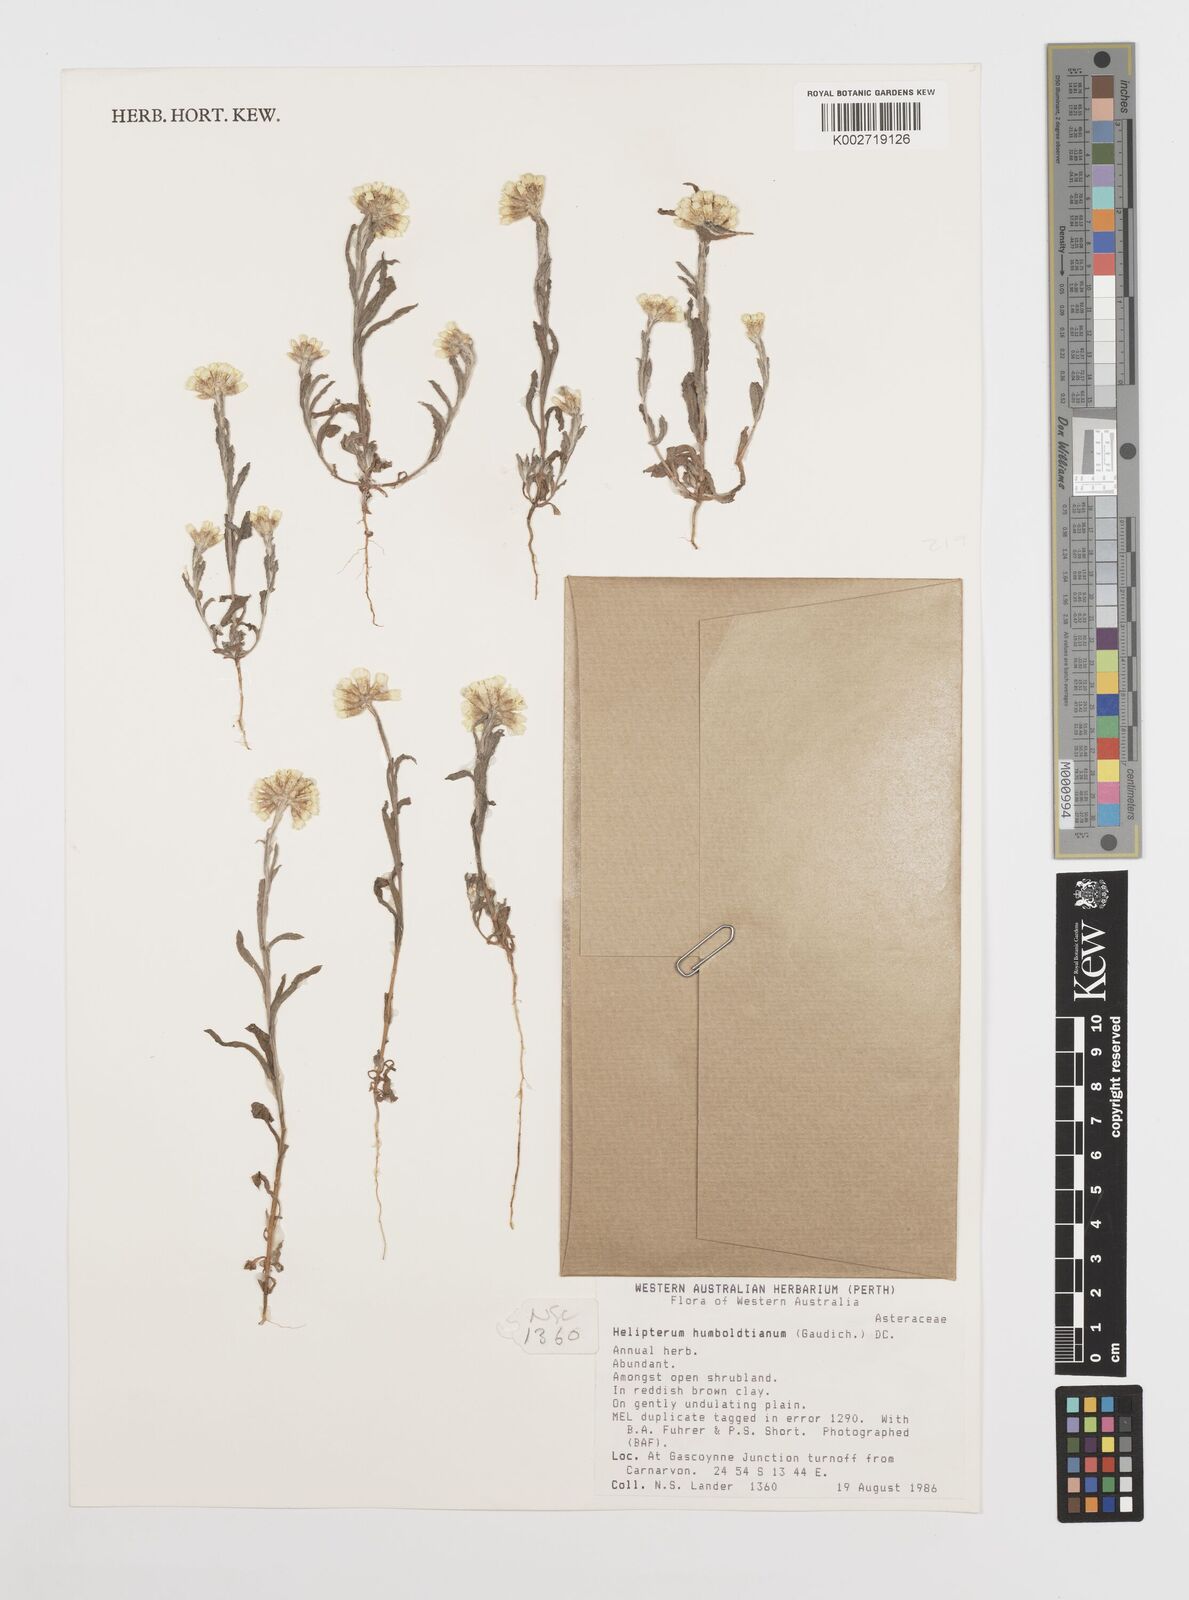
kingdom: Plantae
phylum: Tracheophyta
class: Magnoliopsida
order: Asterales
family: Asteraceae
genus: Rhodanthe
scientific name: Rhodanthe humboldtiana
